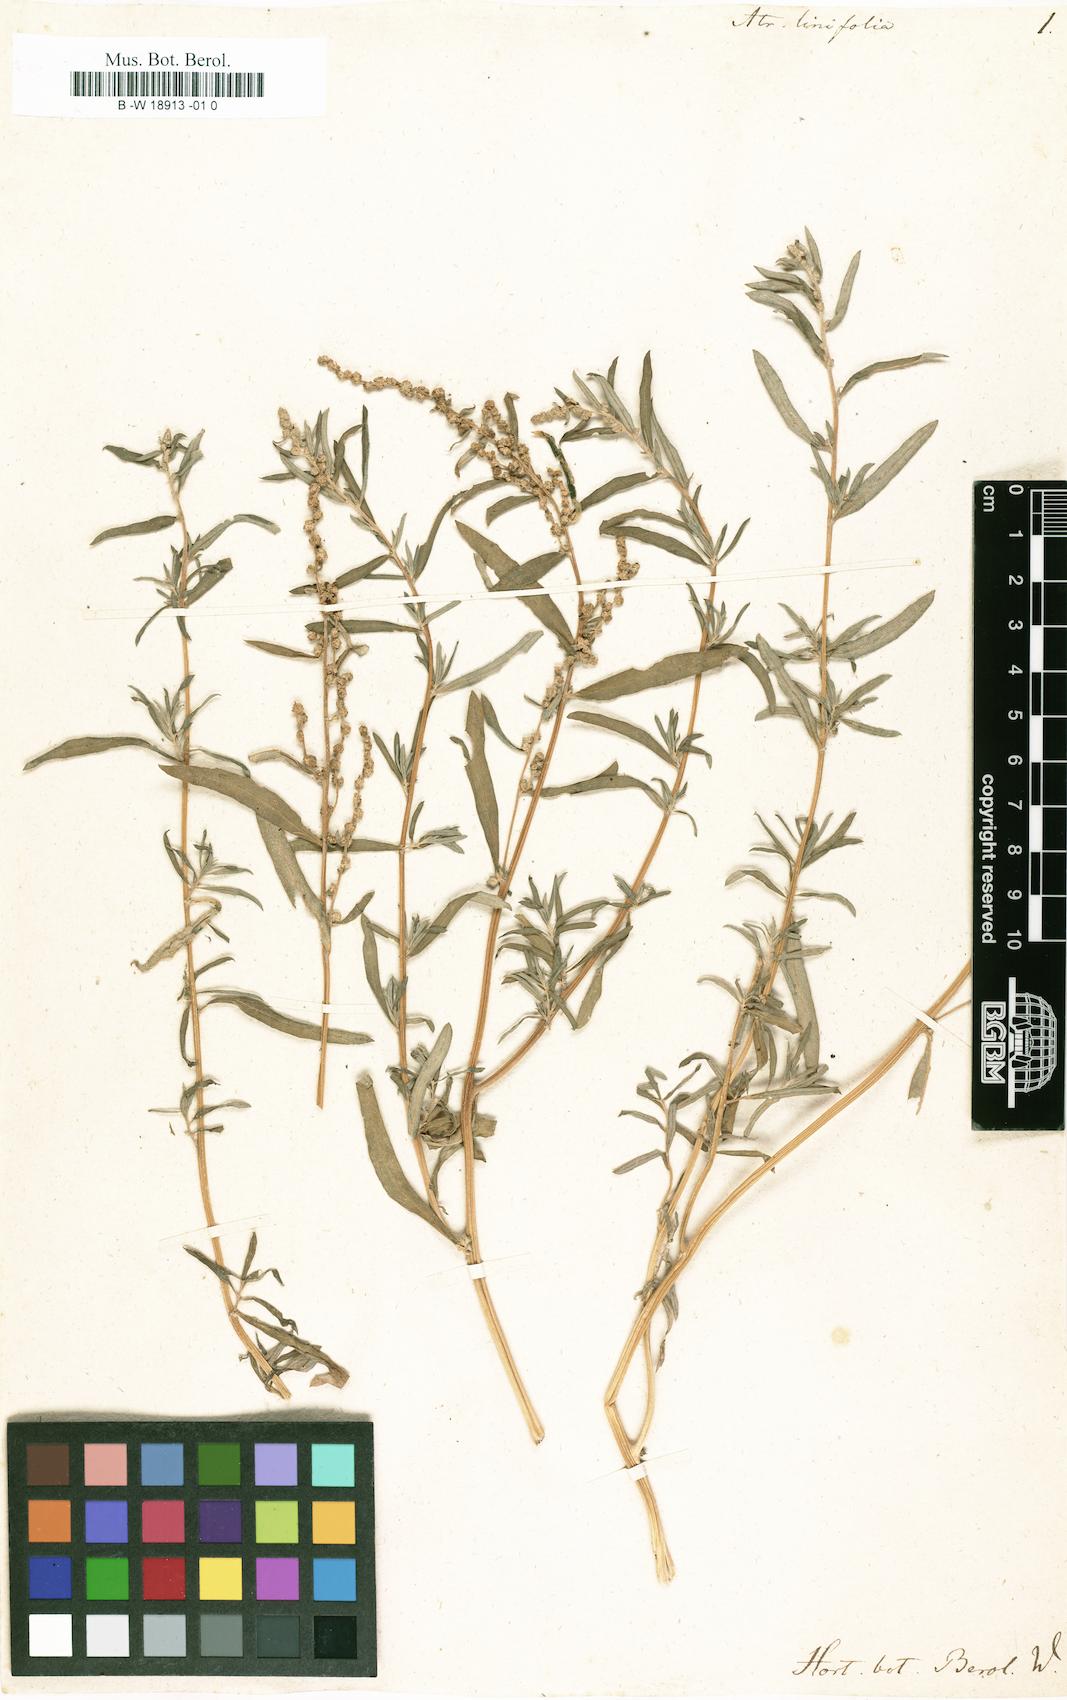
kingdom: Plantae
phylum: Tracheophyta
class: Magnoliopsida
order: Caryophyllales
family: Amaranthaceae
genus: Atriplex
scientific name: Atriplex linifolia
